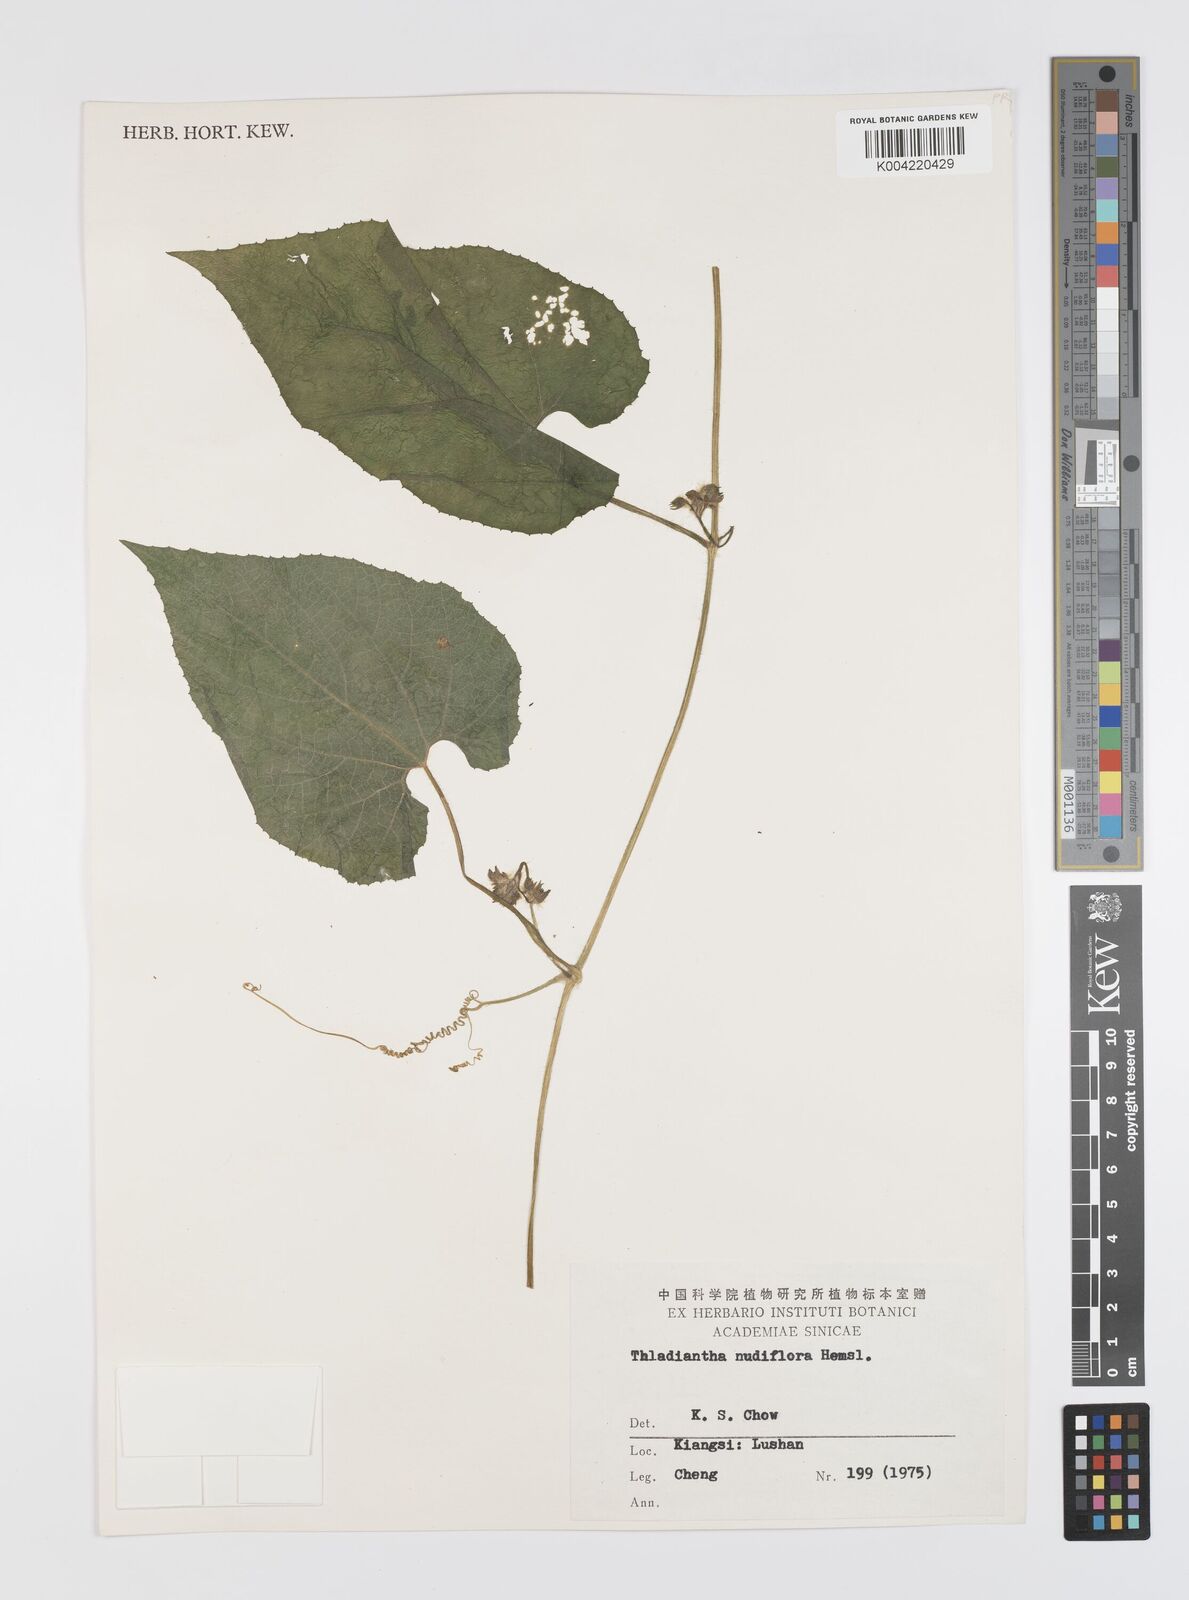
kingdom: Plantae
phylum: Tracheophyta
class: Magnoliopsida
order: Cucurbitales
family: Cucurbitaceae
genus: Thladiantha
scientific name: Thladiantha nudiflora
